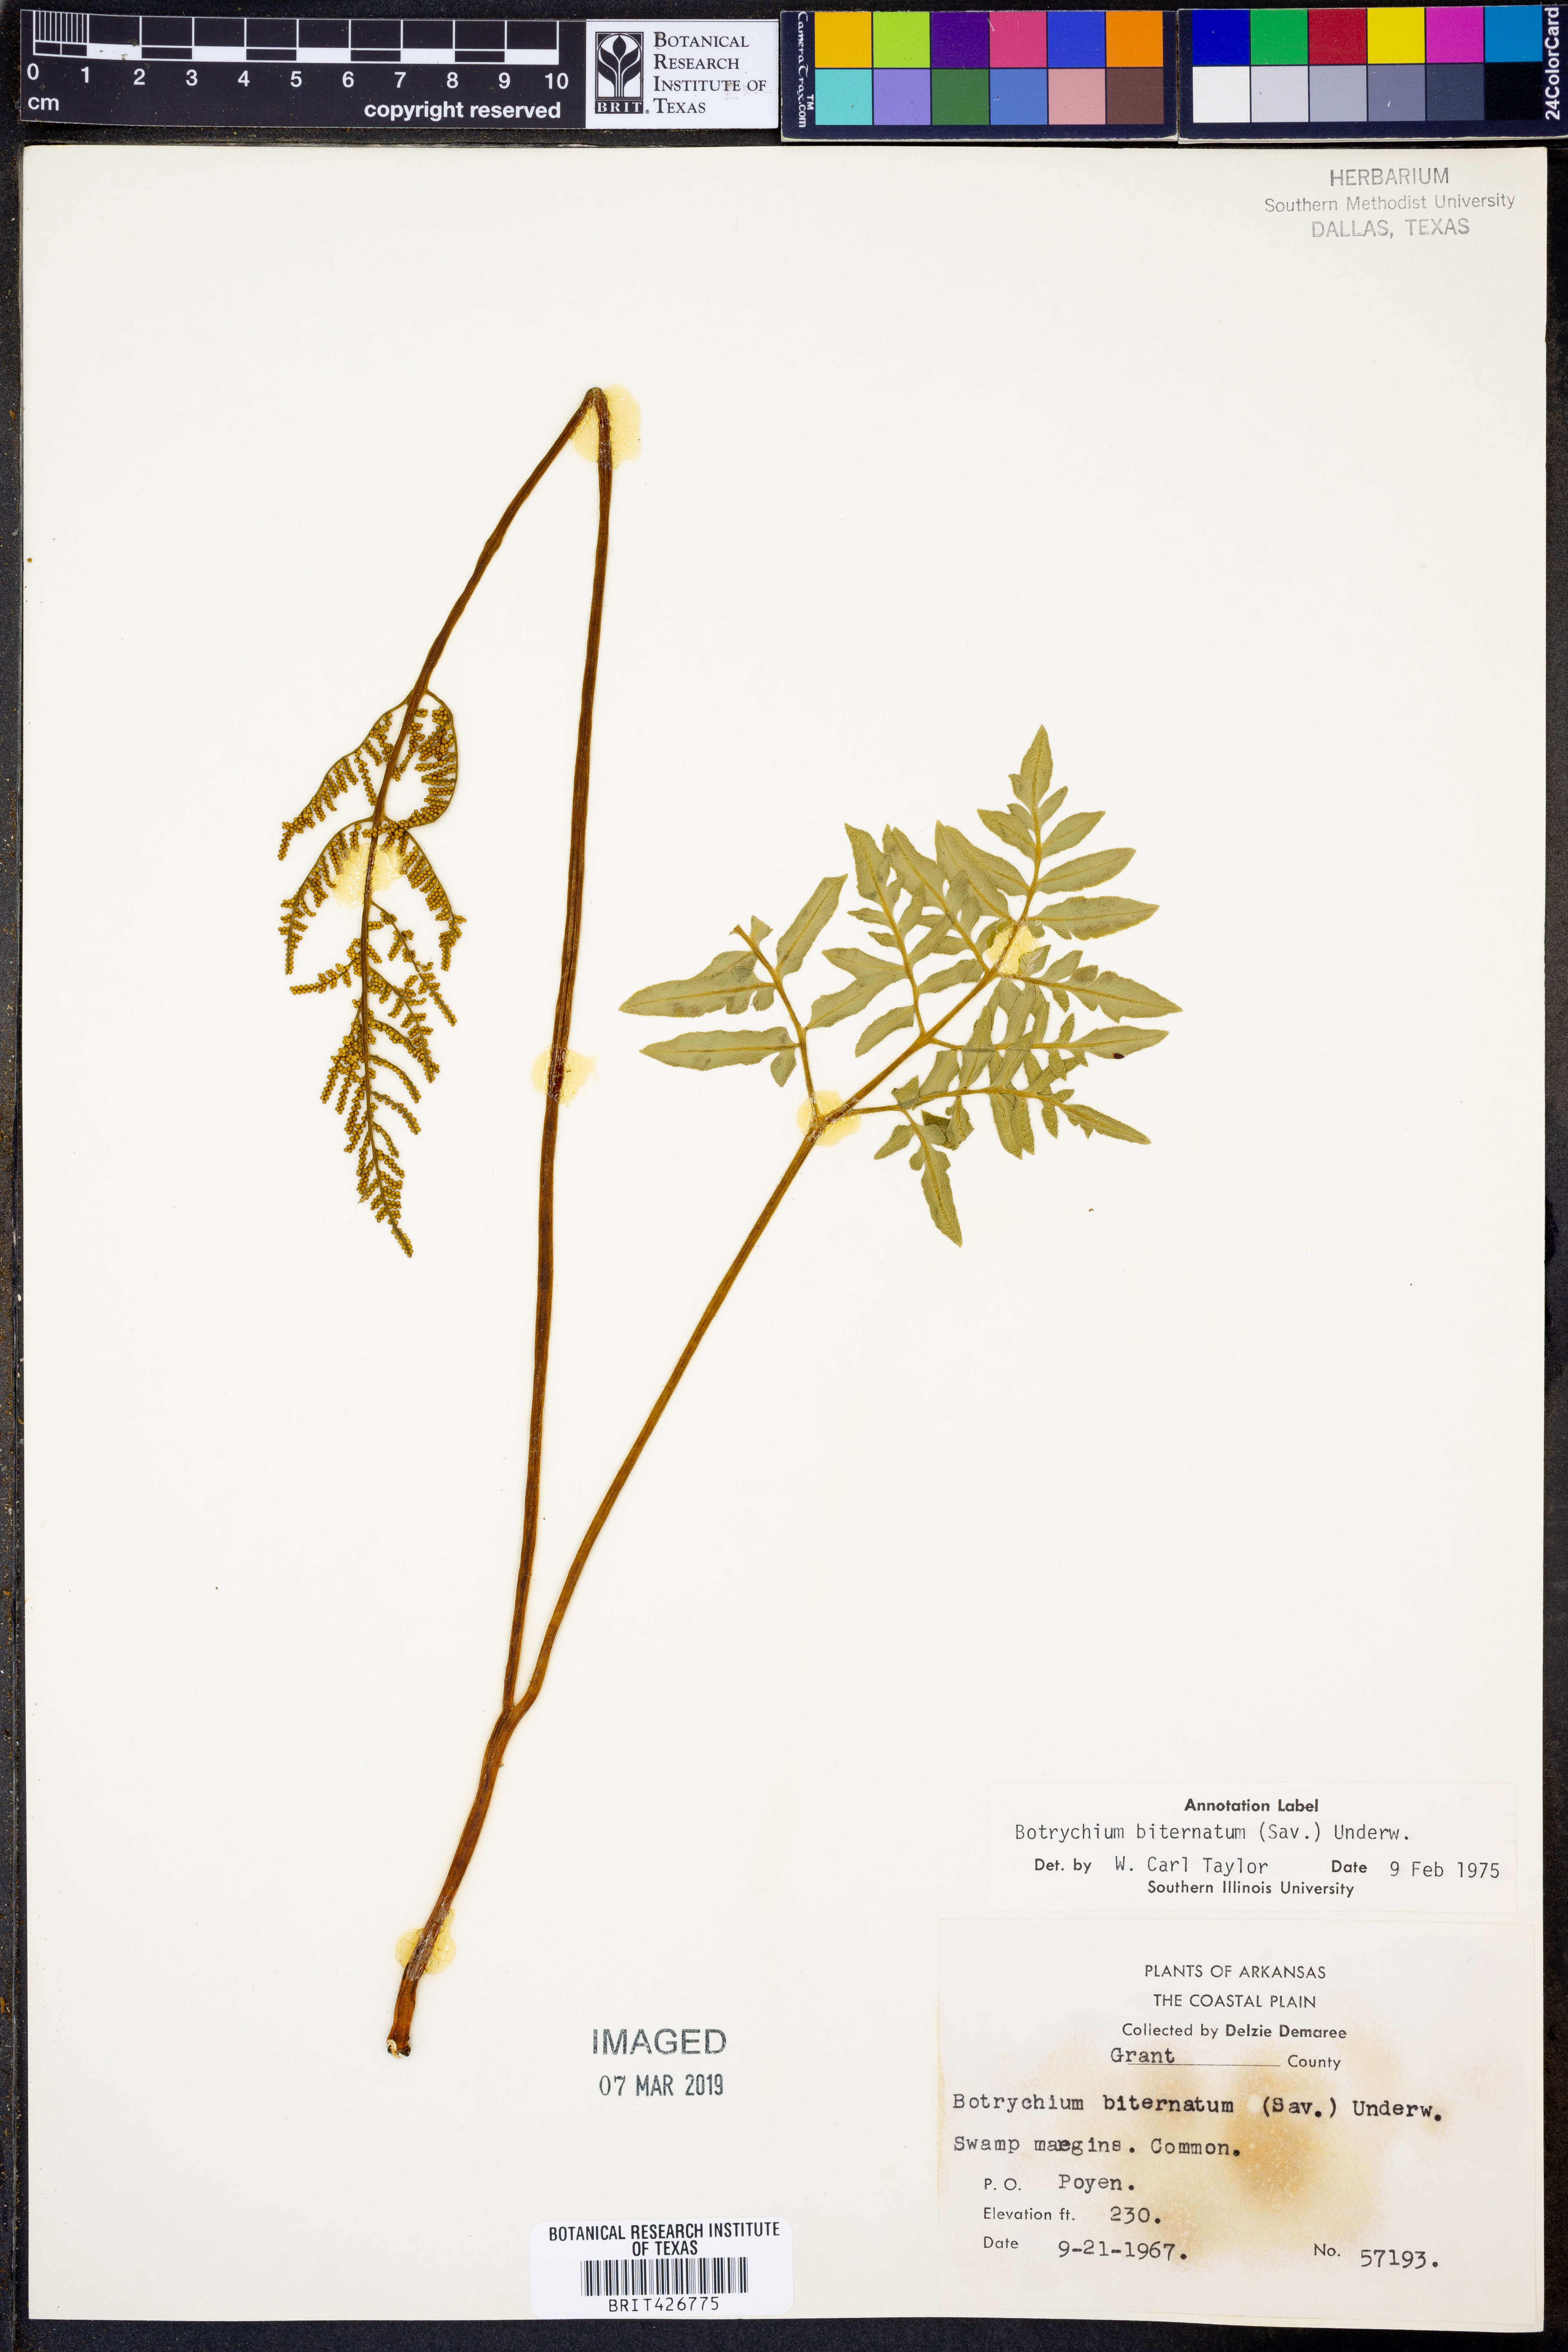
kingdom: Plantae
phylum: Tracheophyta
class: Polypodiopsida
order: Ophioglossales
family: Ophioglossaceae
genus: Sceptridium
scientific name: Sceptridium biternatum
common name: Sparse-lobed grapefern
